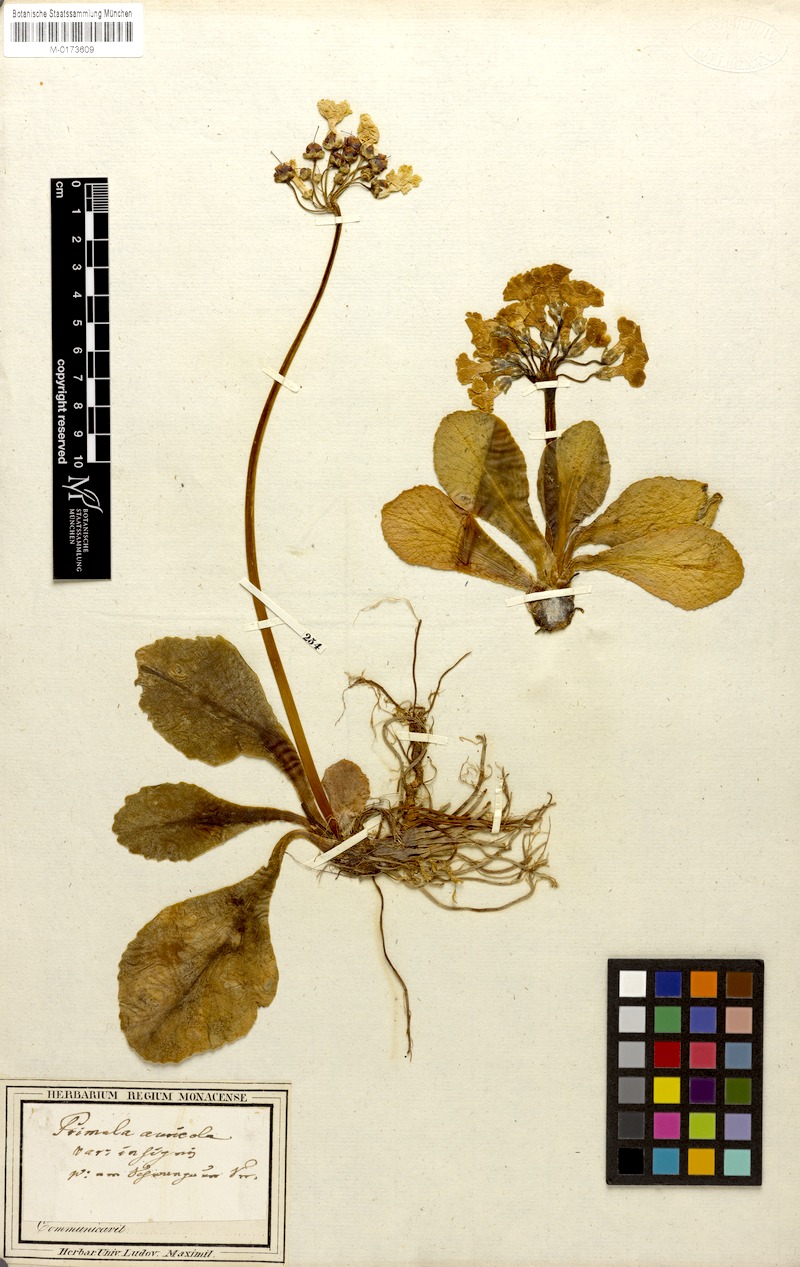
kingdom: Plantae
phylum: Tracheophyta
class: Magnoliopsida
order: Ericales
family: Primulaceae
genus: Primula
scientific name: Primula auricula
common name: Auricula
